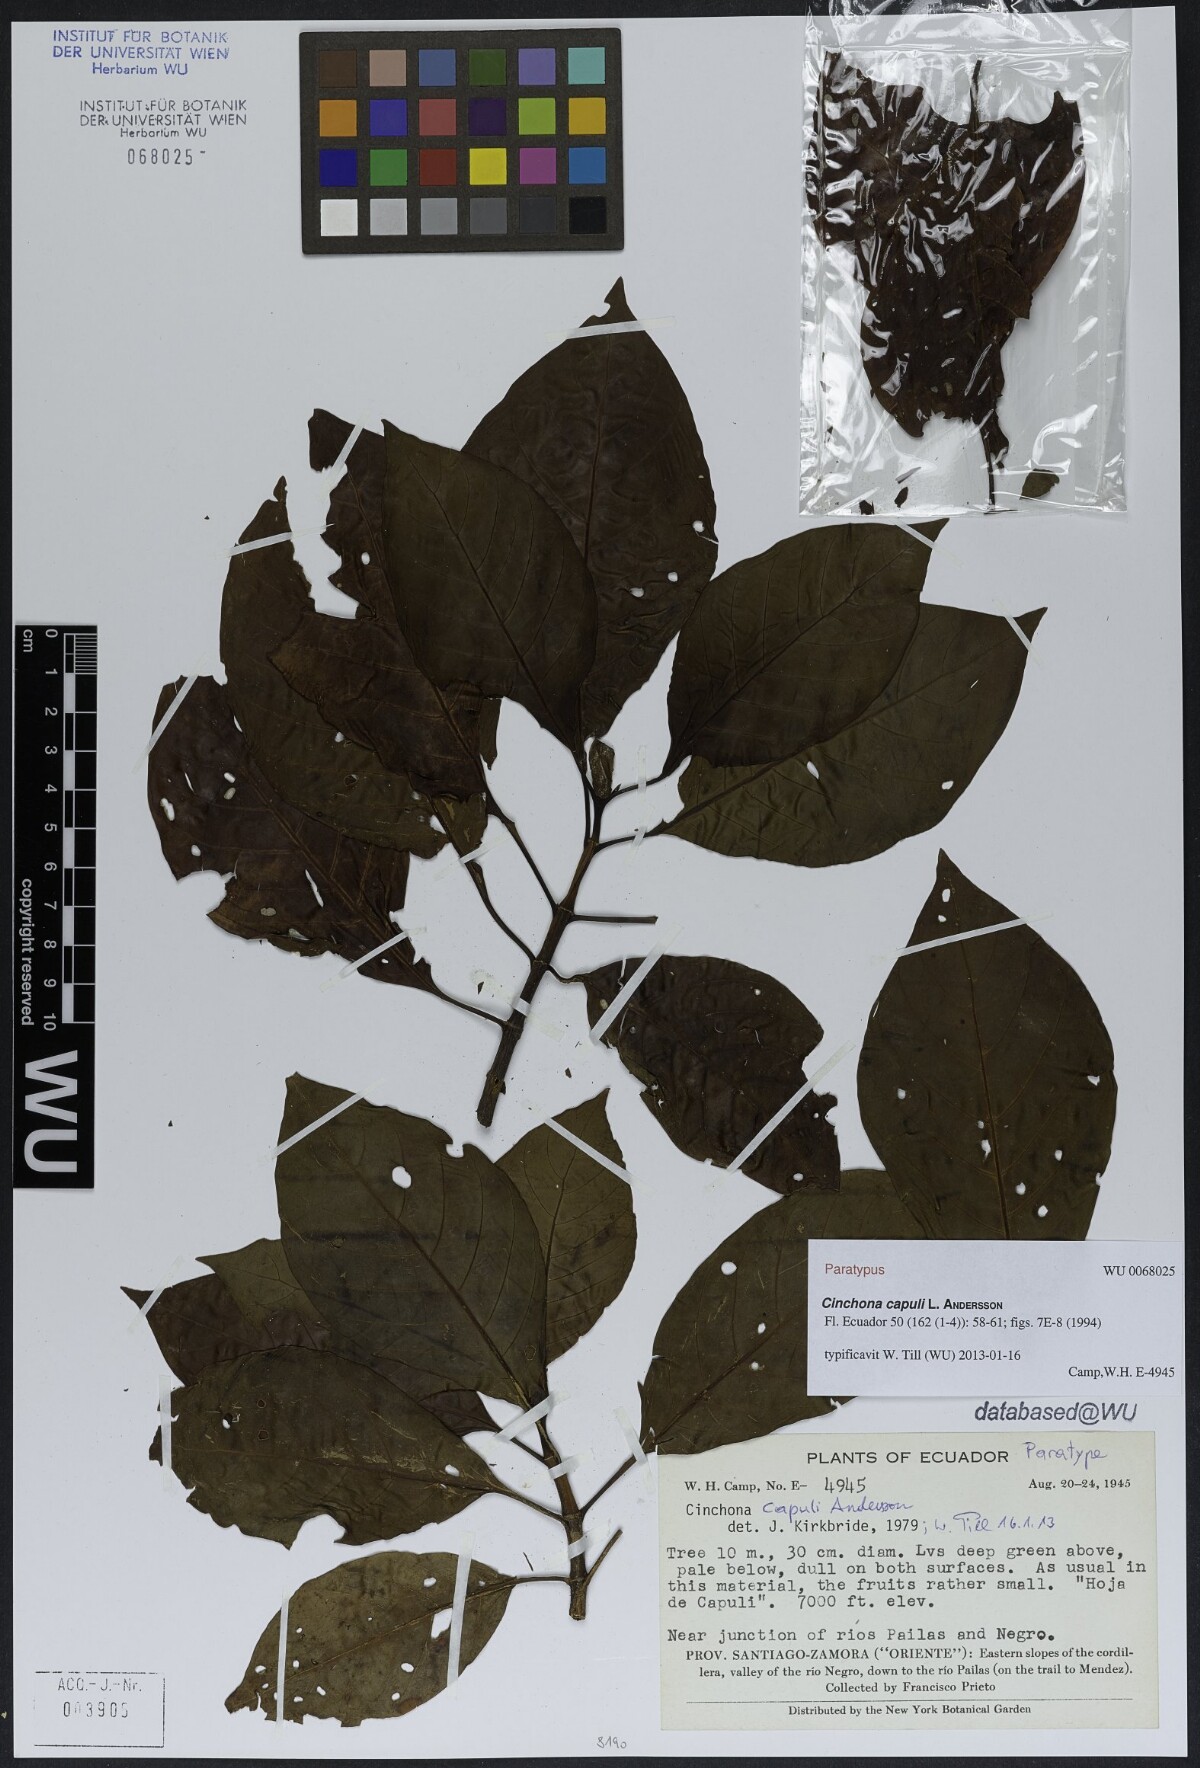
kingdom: Plantae
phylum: Tracheophyta
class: Magnoliopsida
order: Gentianales
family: Rubiaceae
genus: Cinchona
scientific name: Cinchona capuli
